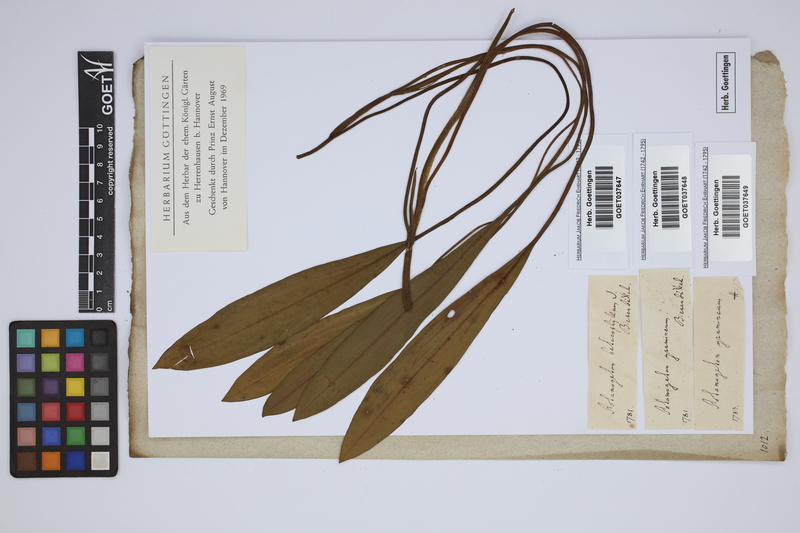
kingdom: Plantae
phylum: Tracheophyta
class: Liliopsida
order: Alismatales
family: Potamogetonaceae
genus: Potamogeton
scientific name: Potamogeton gramineus
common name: Various-leaved pondweed
